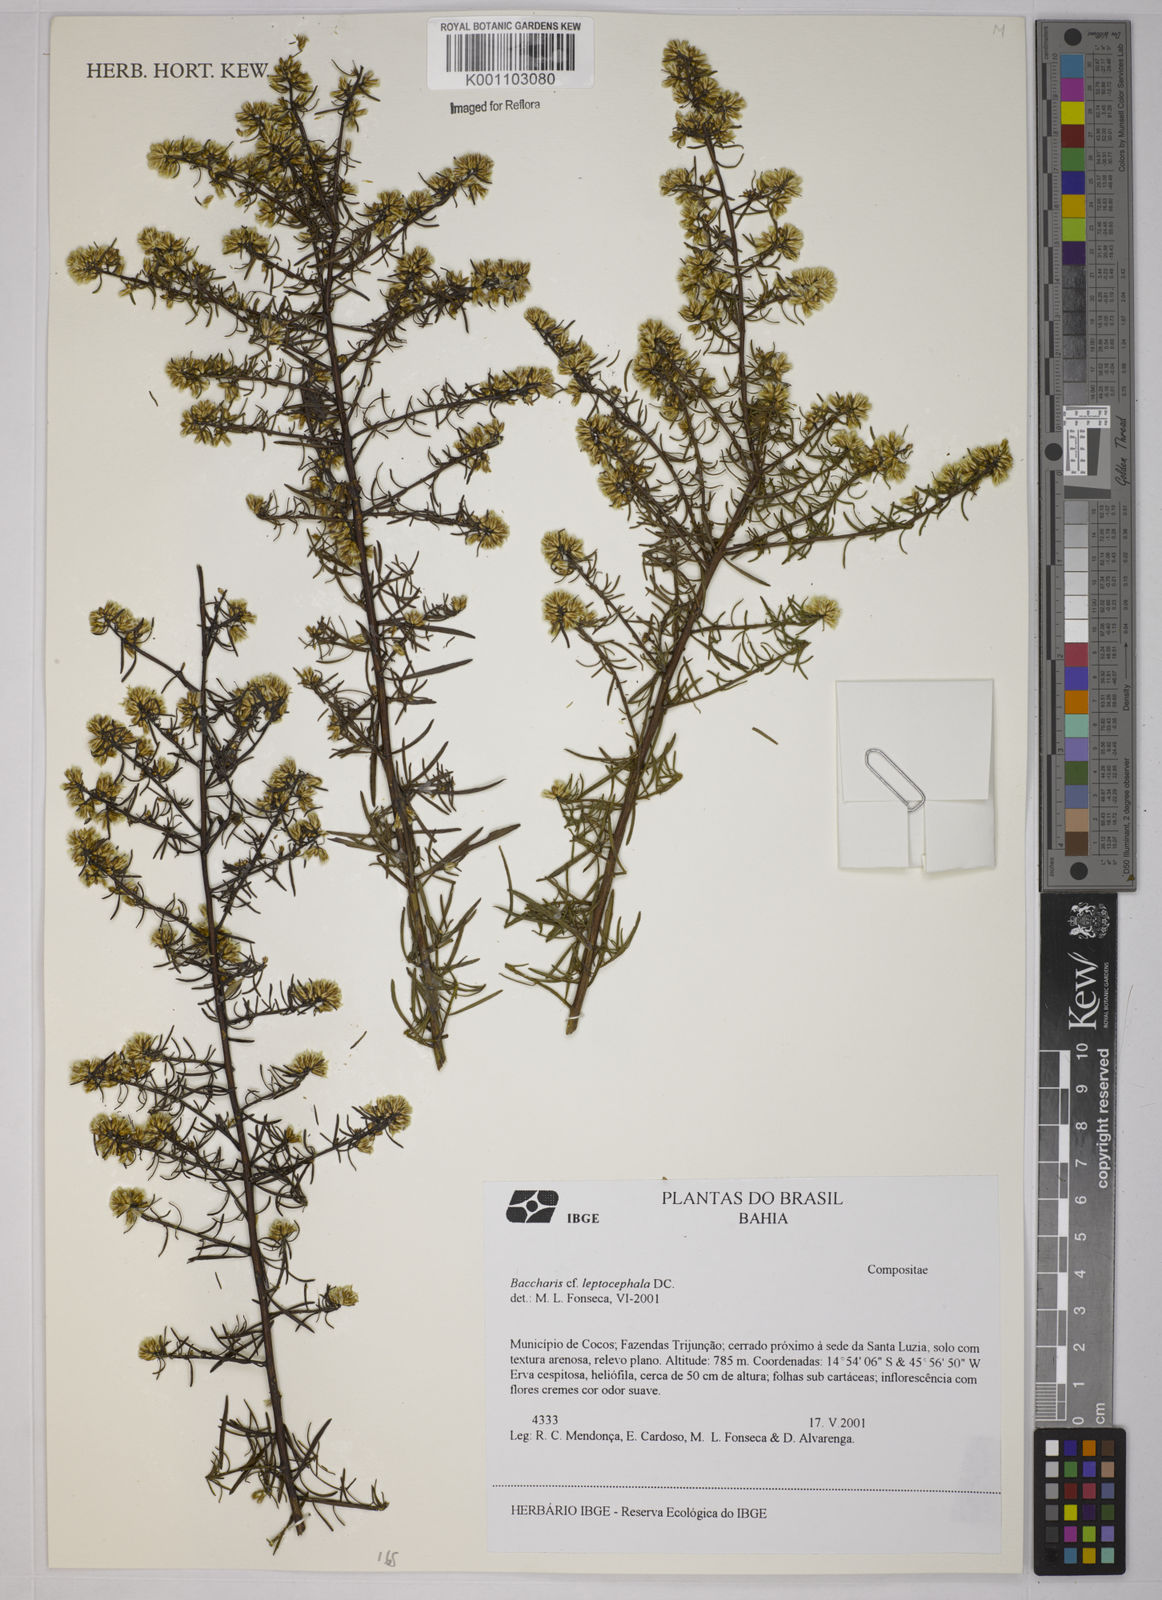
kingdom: Plantae
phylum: Tracheophyta
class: Magnoliopsida
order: Asterales
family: Asteraceae
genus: Baccharis
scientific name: Baccharis leptocephala
